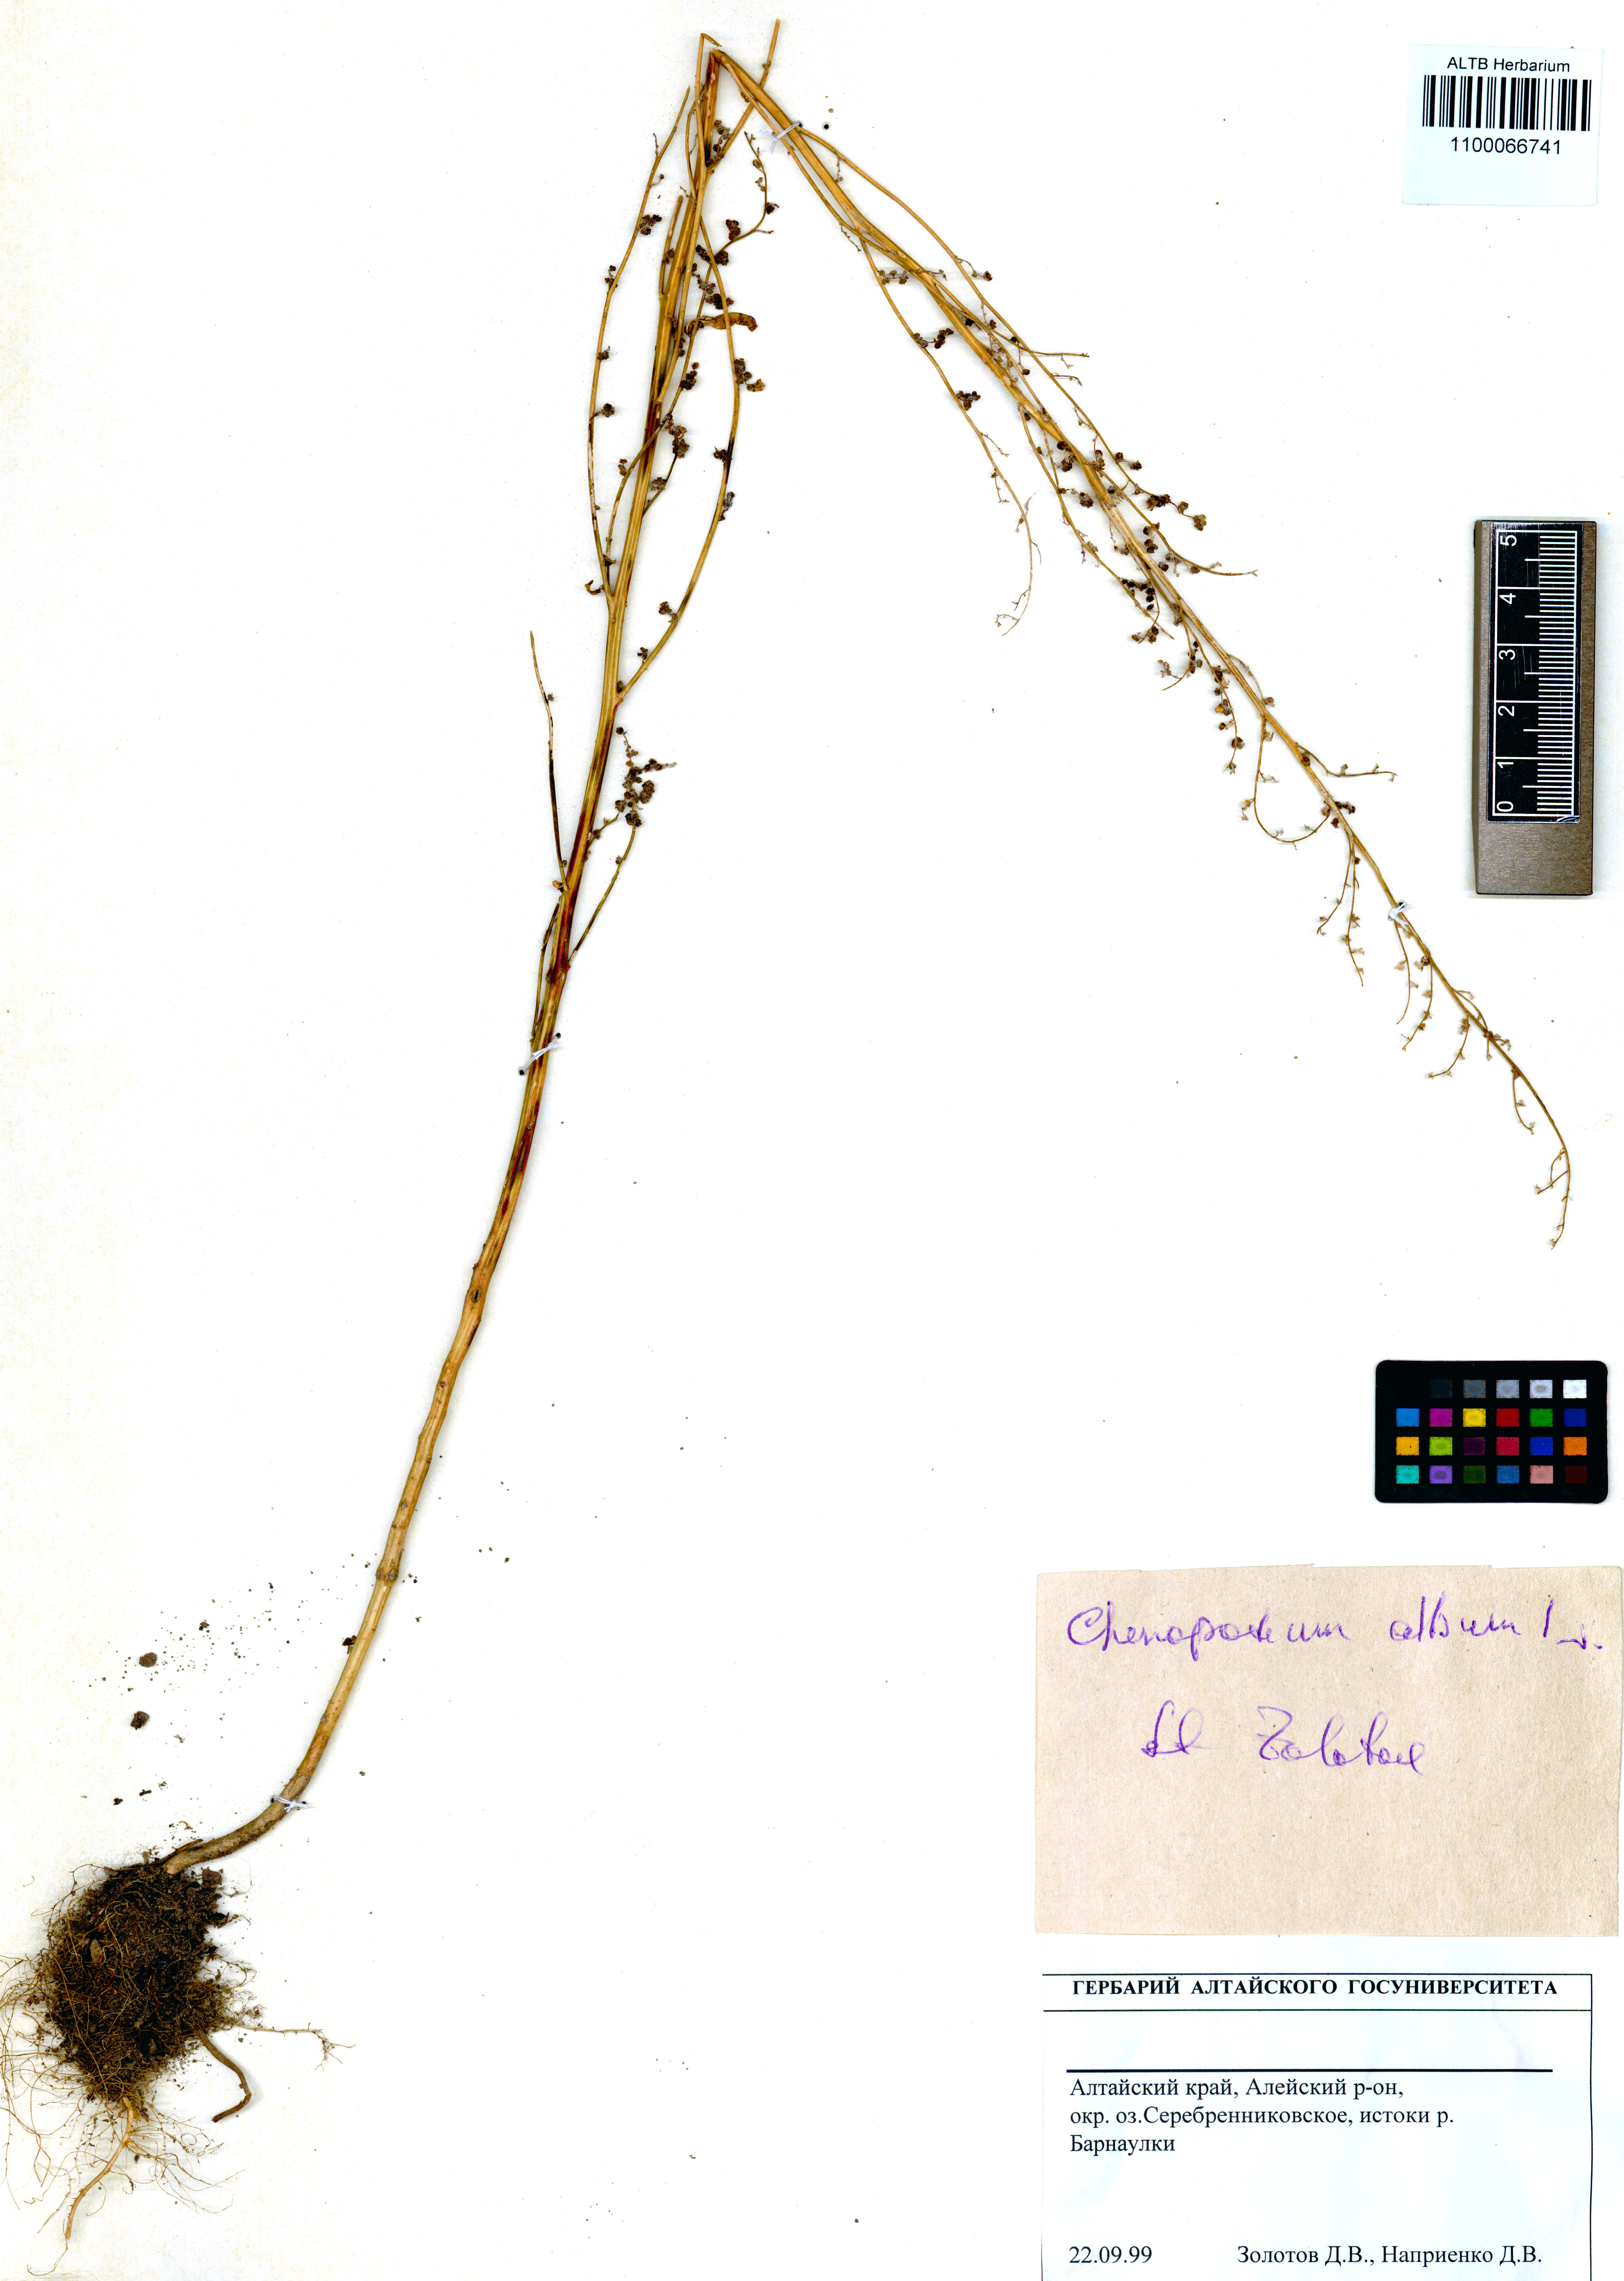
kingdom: Plantae
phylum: Tracheophyta
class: Magnoliopsida
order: Caryophyllales
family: Amaranthaceae
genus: Chenopodium
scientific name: Chenopodium album
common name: Fat-hen
